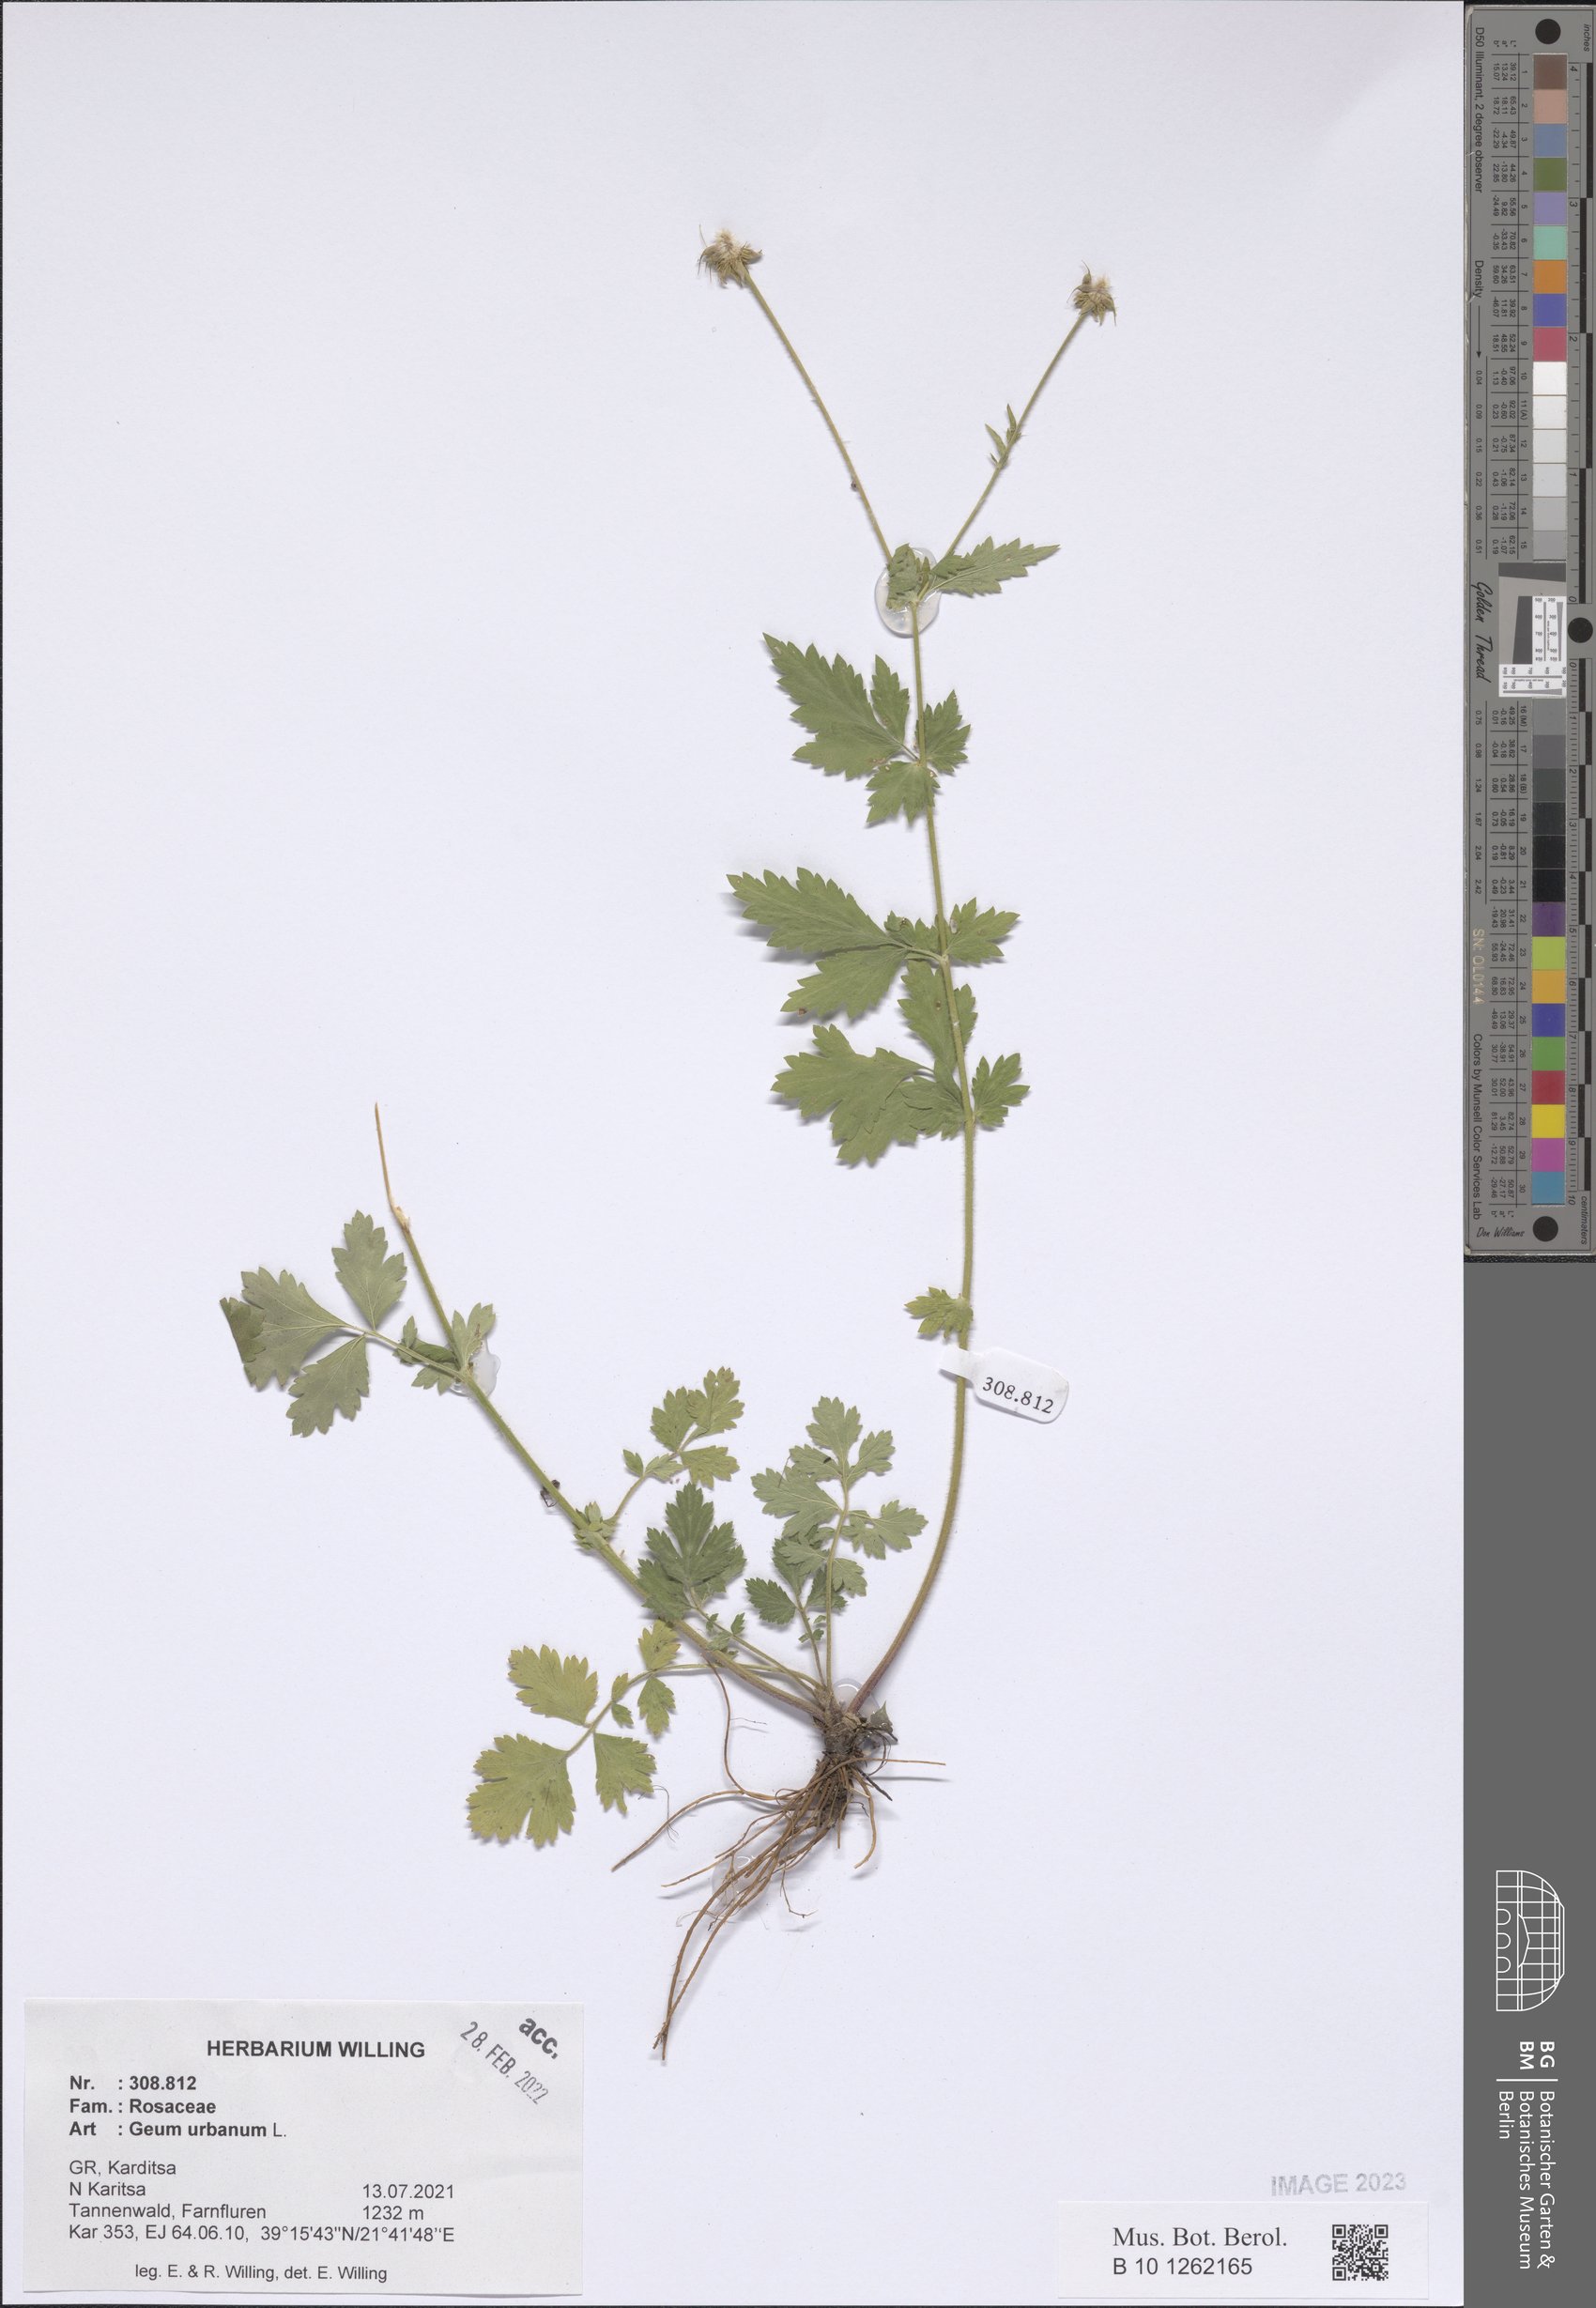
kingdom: Plantae
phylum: Tracheophyta
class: Magnoliopsida
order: Rosales
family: Rosaceae
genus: Geum
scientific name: Geum urbanum
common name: Wood avens
